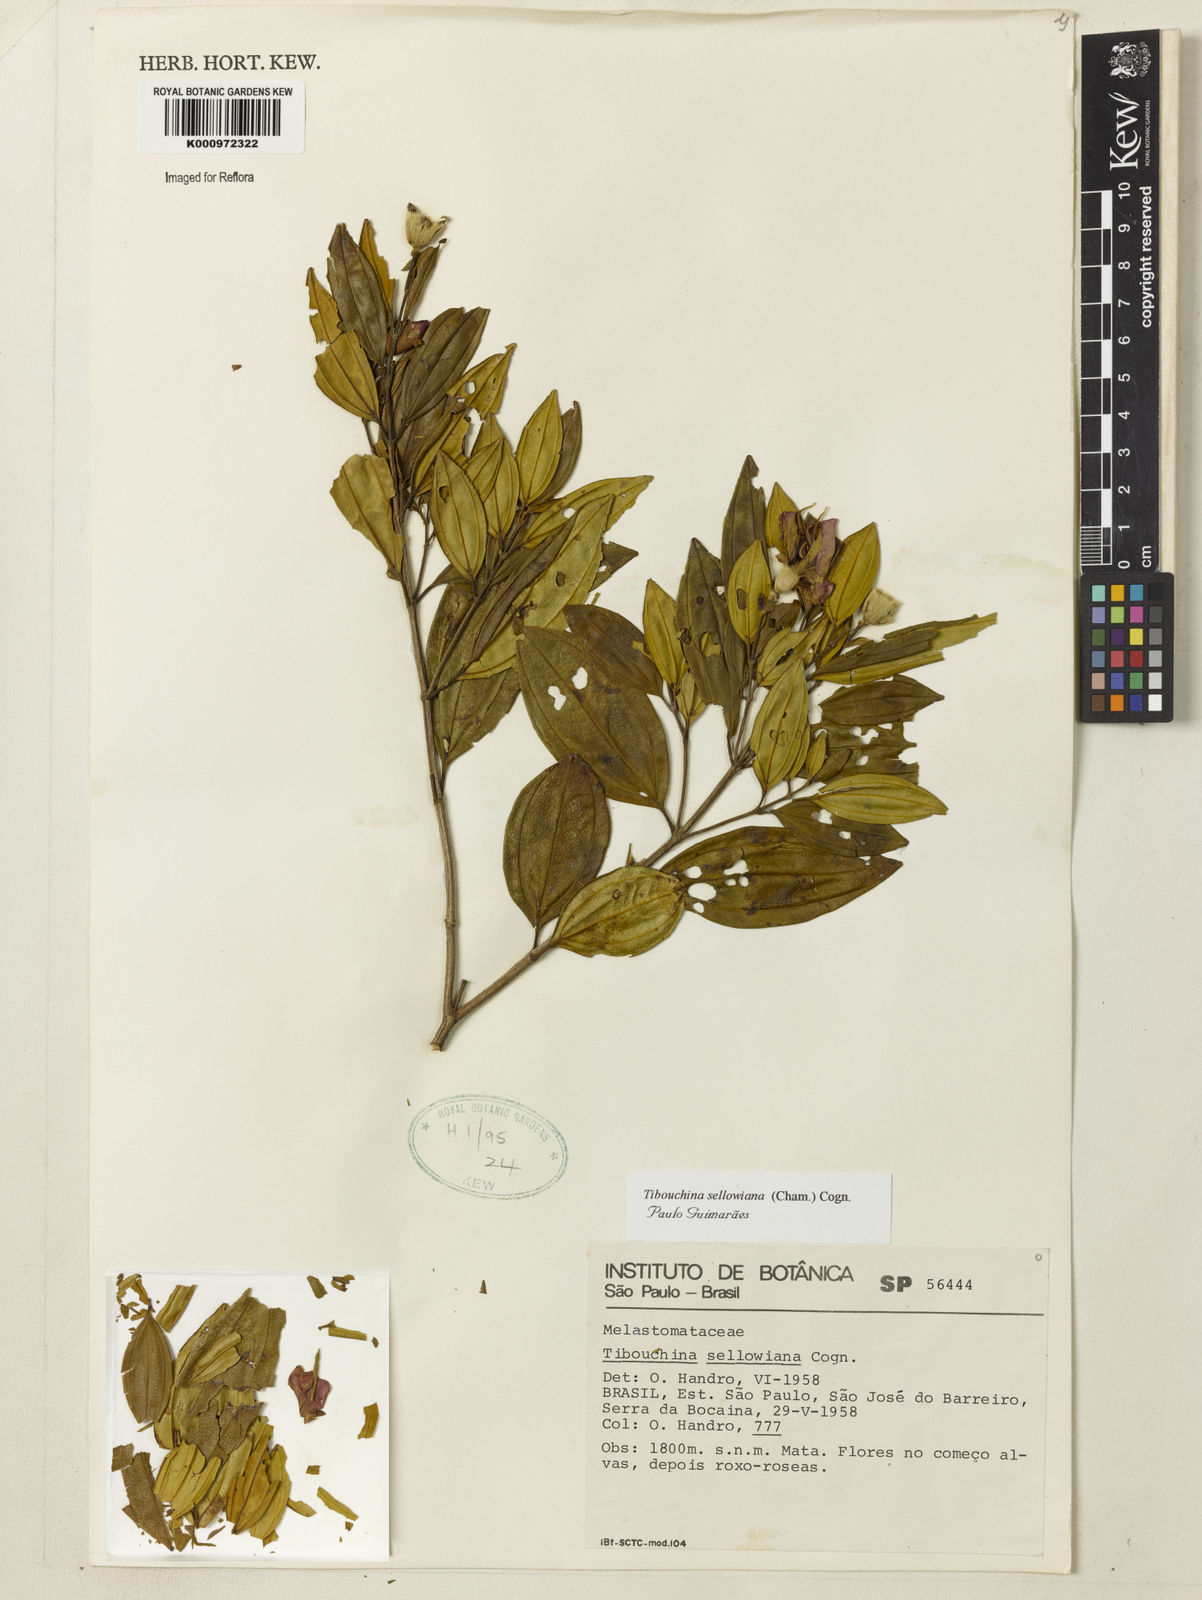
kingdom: Plantae
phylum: Tracheophyta
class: Magnoliopsida
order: Myrtales
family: Melastomataceae
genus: Pleroma
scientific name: Pleroma sellowianum
